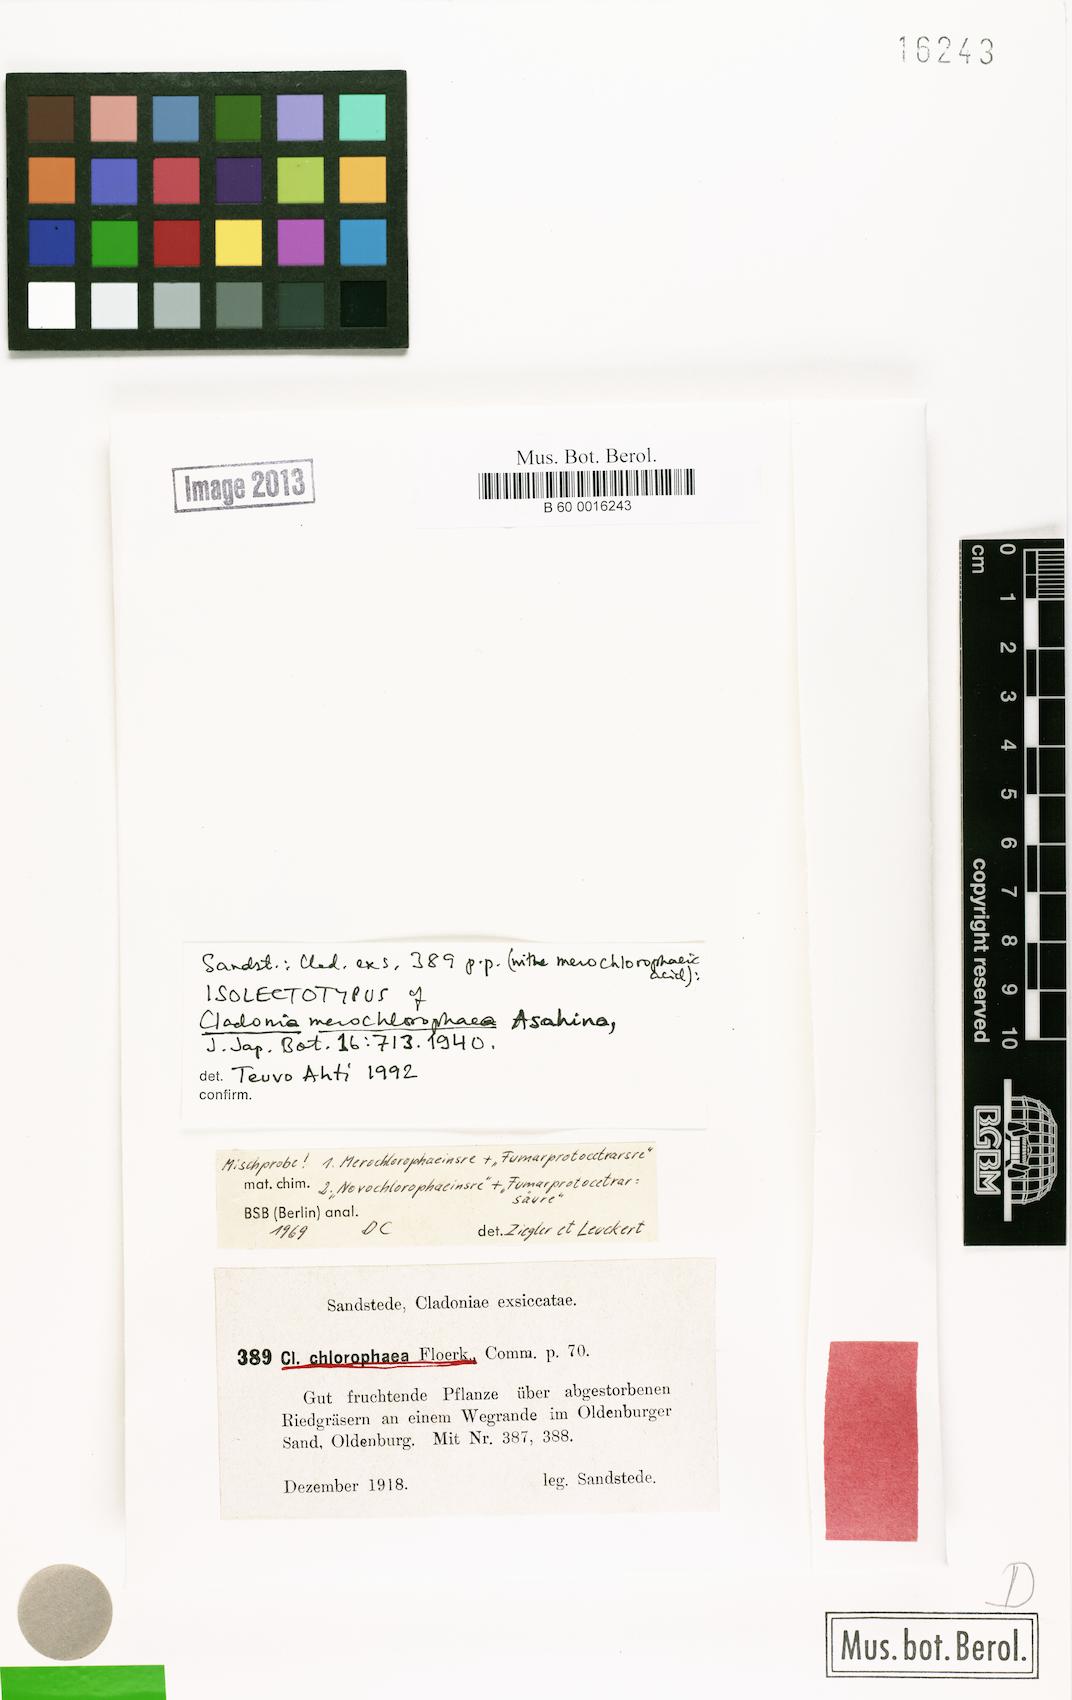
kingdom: Fungi
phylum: Ascomycota
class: Lecanoromycetes
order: Lecanorales
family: Cladoniaceae
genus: Cladonia
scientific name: Cladonia merochlorophaea
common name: Gritty pixie-cup lichen
